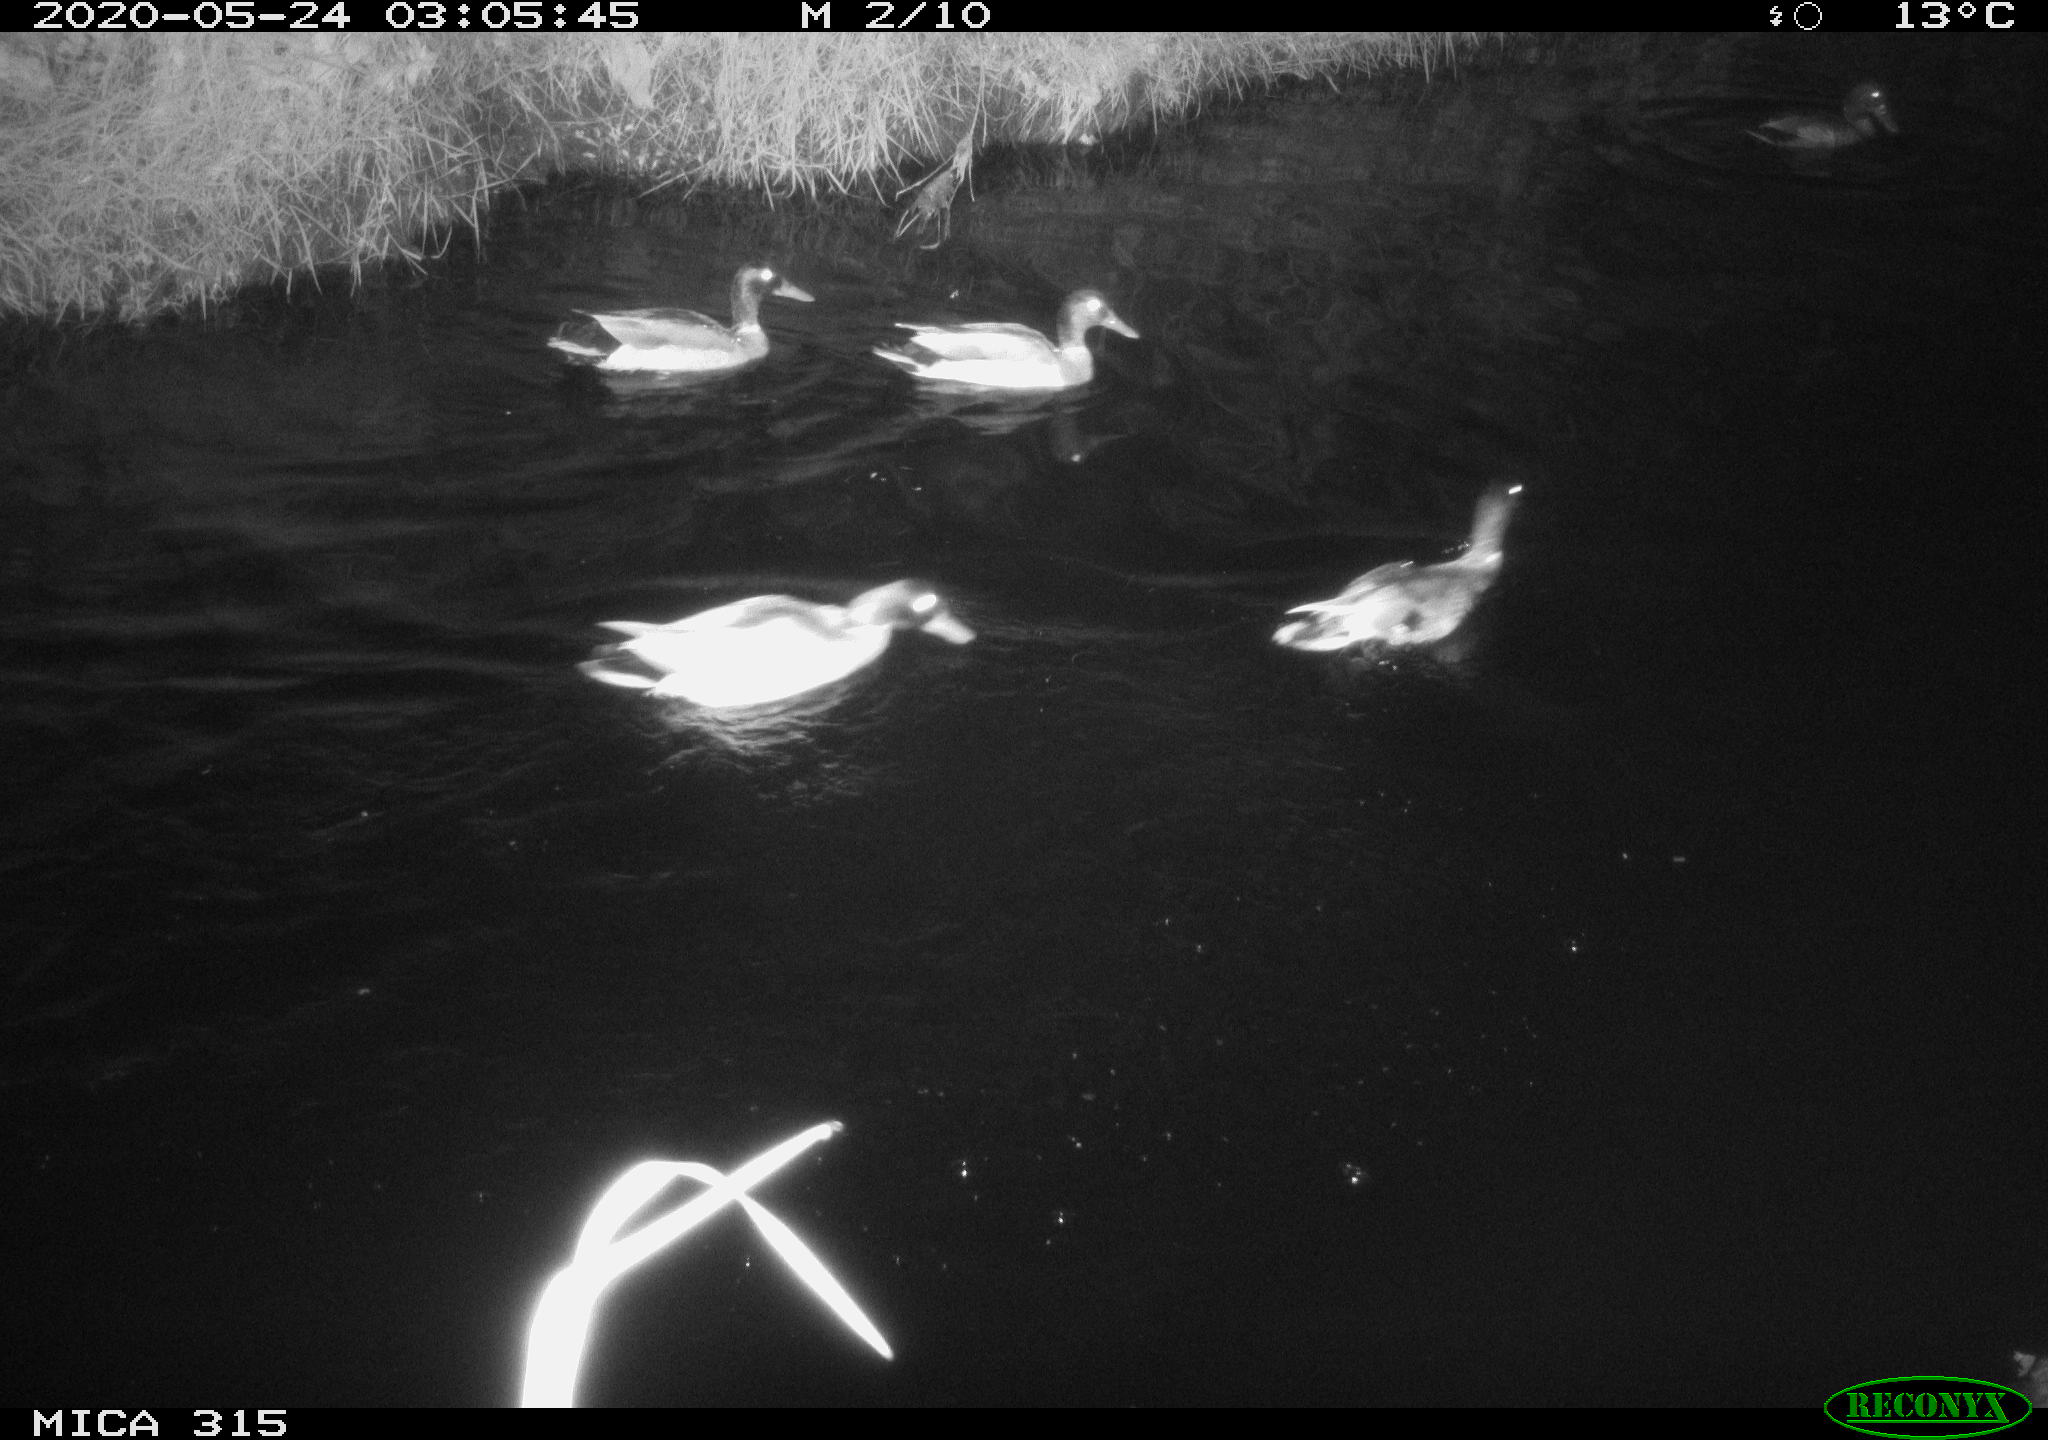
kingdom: Animalia
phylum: Chordata
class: Aves
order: Anseriformes
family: Anatidae
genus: Anas
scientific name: Anas platyrhynchos
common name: Mallard
